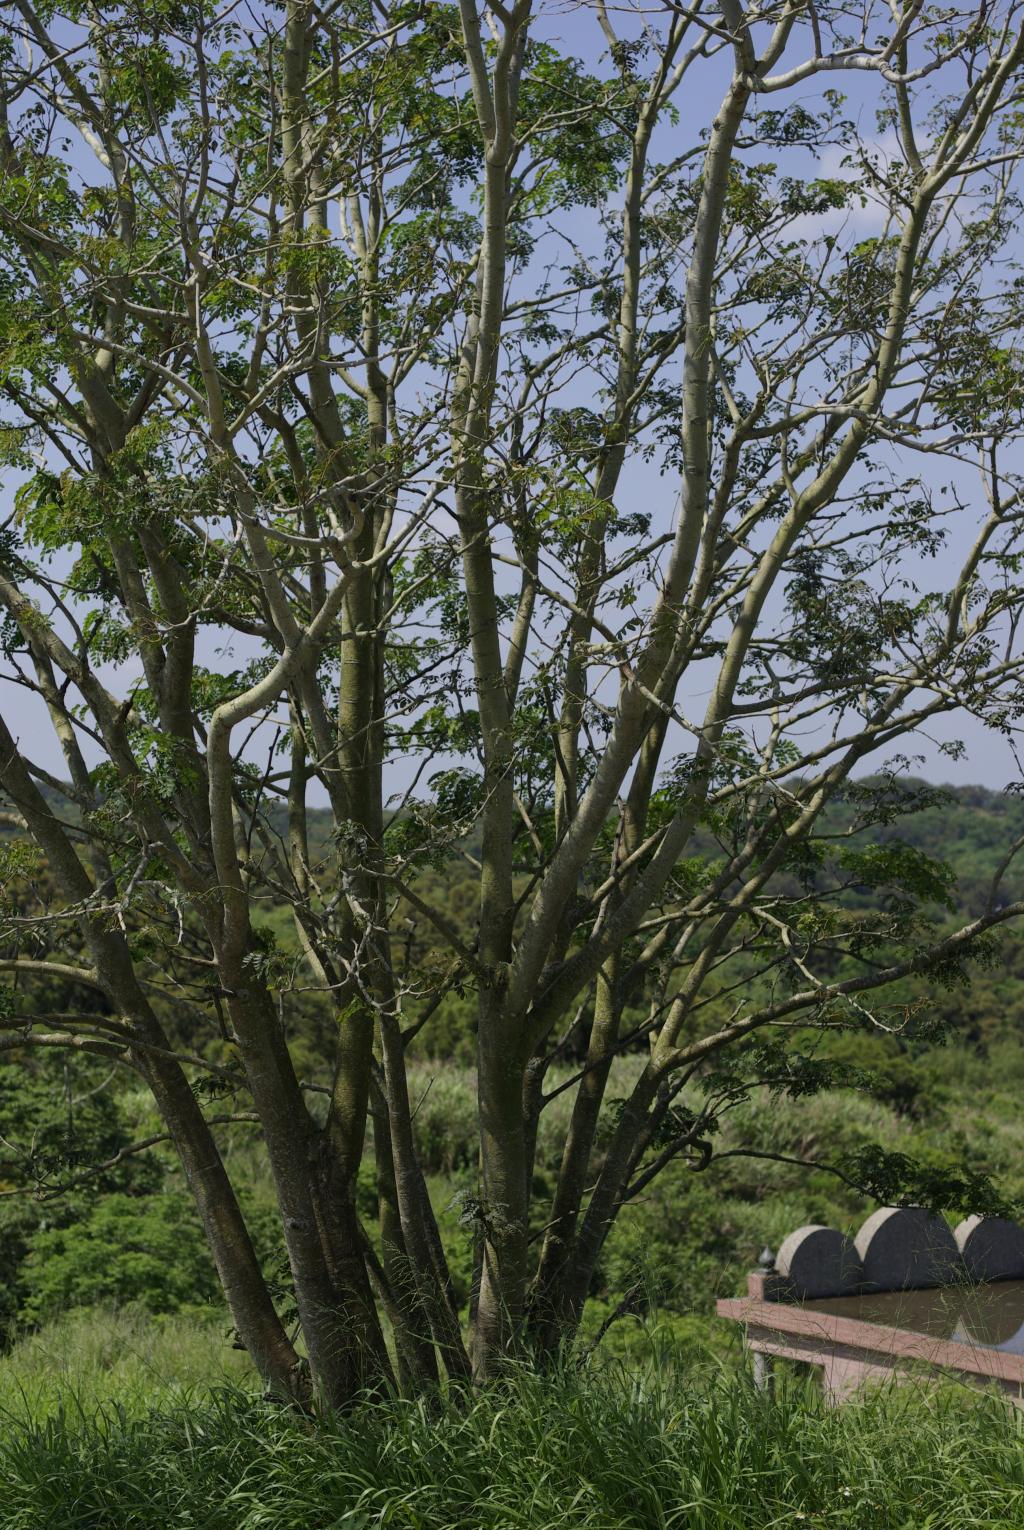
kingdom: Plantae
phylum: Tracheophyta
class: Magnoliopsida
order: Fabales
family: Fabaceae
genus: Albizia
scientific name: Albizia procera
